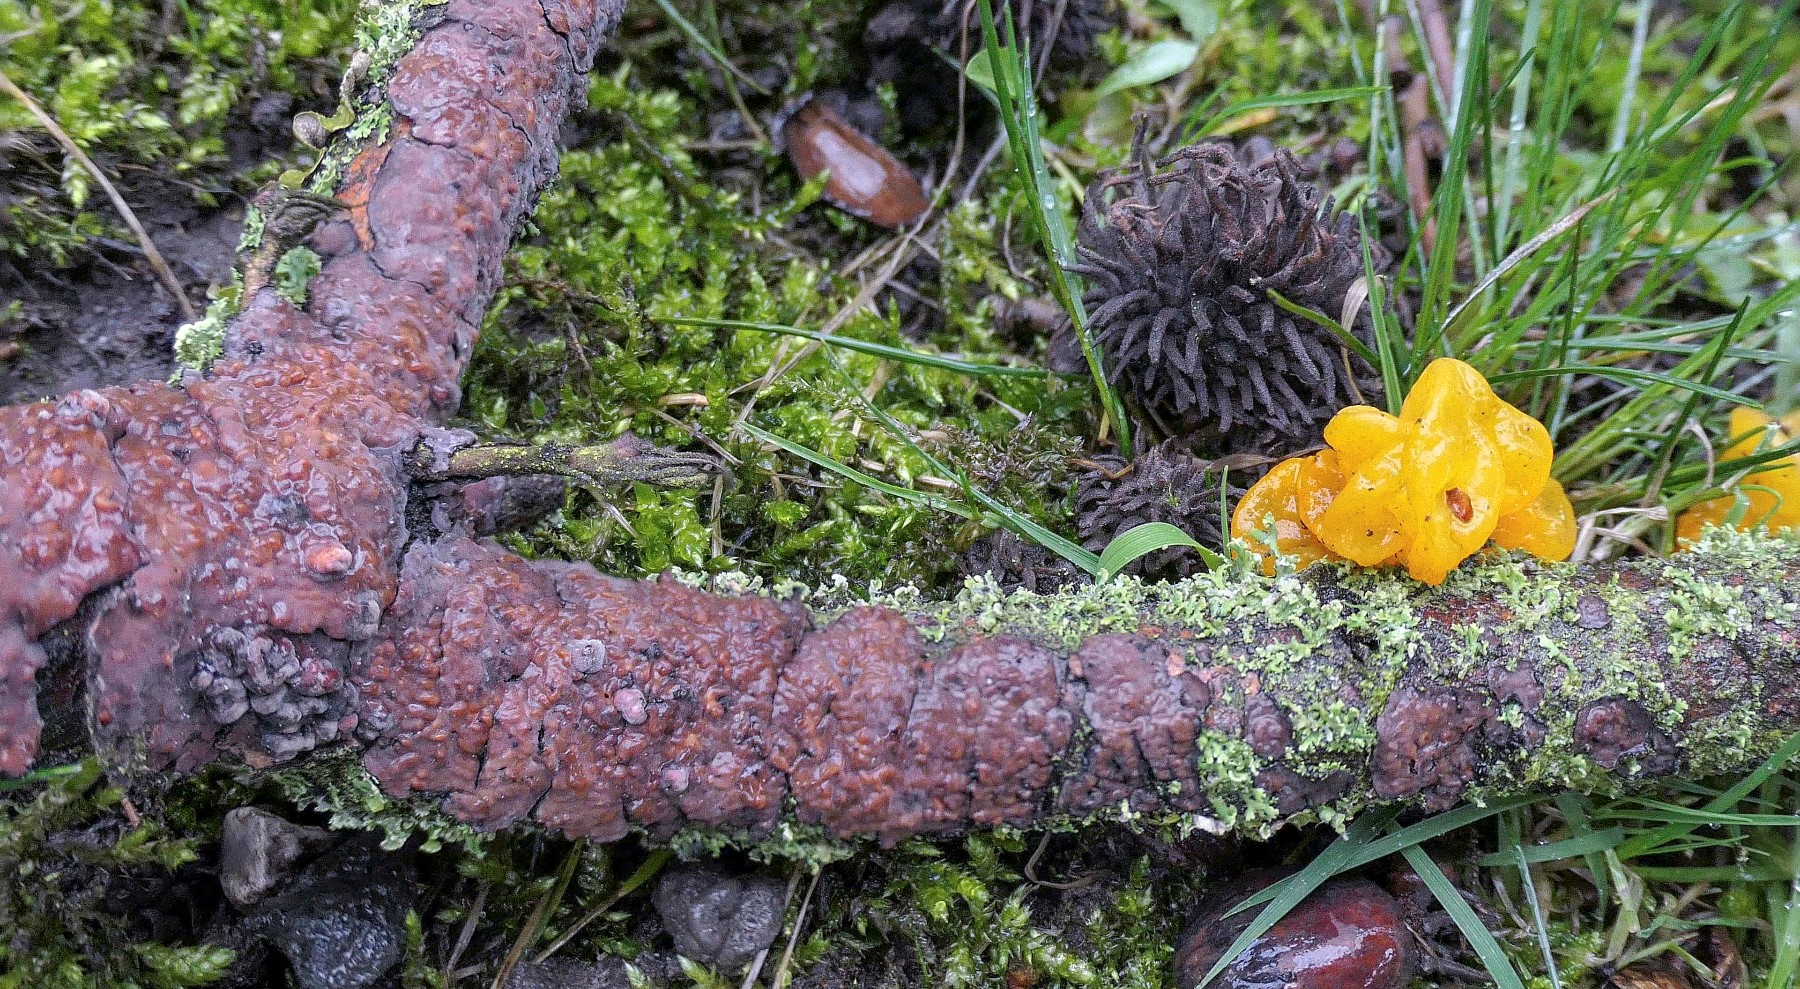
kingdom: Fungi
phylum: Basidiomycota
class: Tremellomycetes
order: Tremellales
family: Tremellaceae
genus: Tremella
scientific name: Tremella mesenterica
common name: gul bævresvamp
